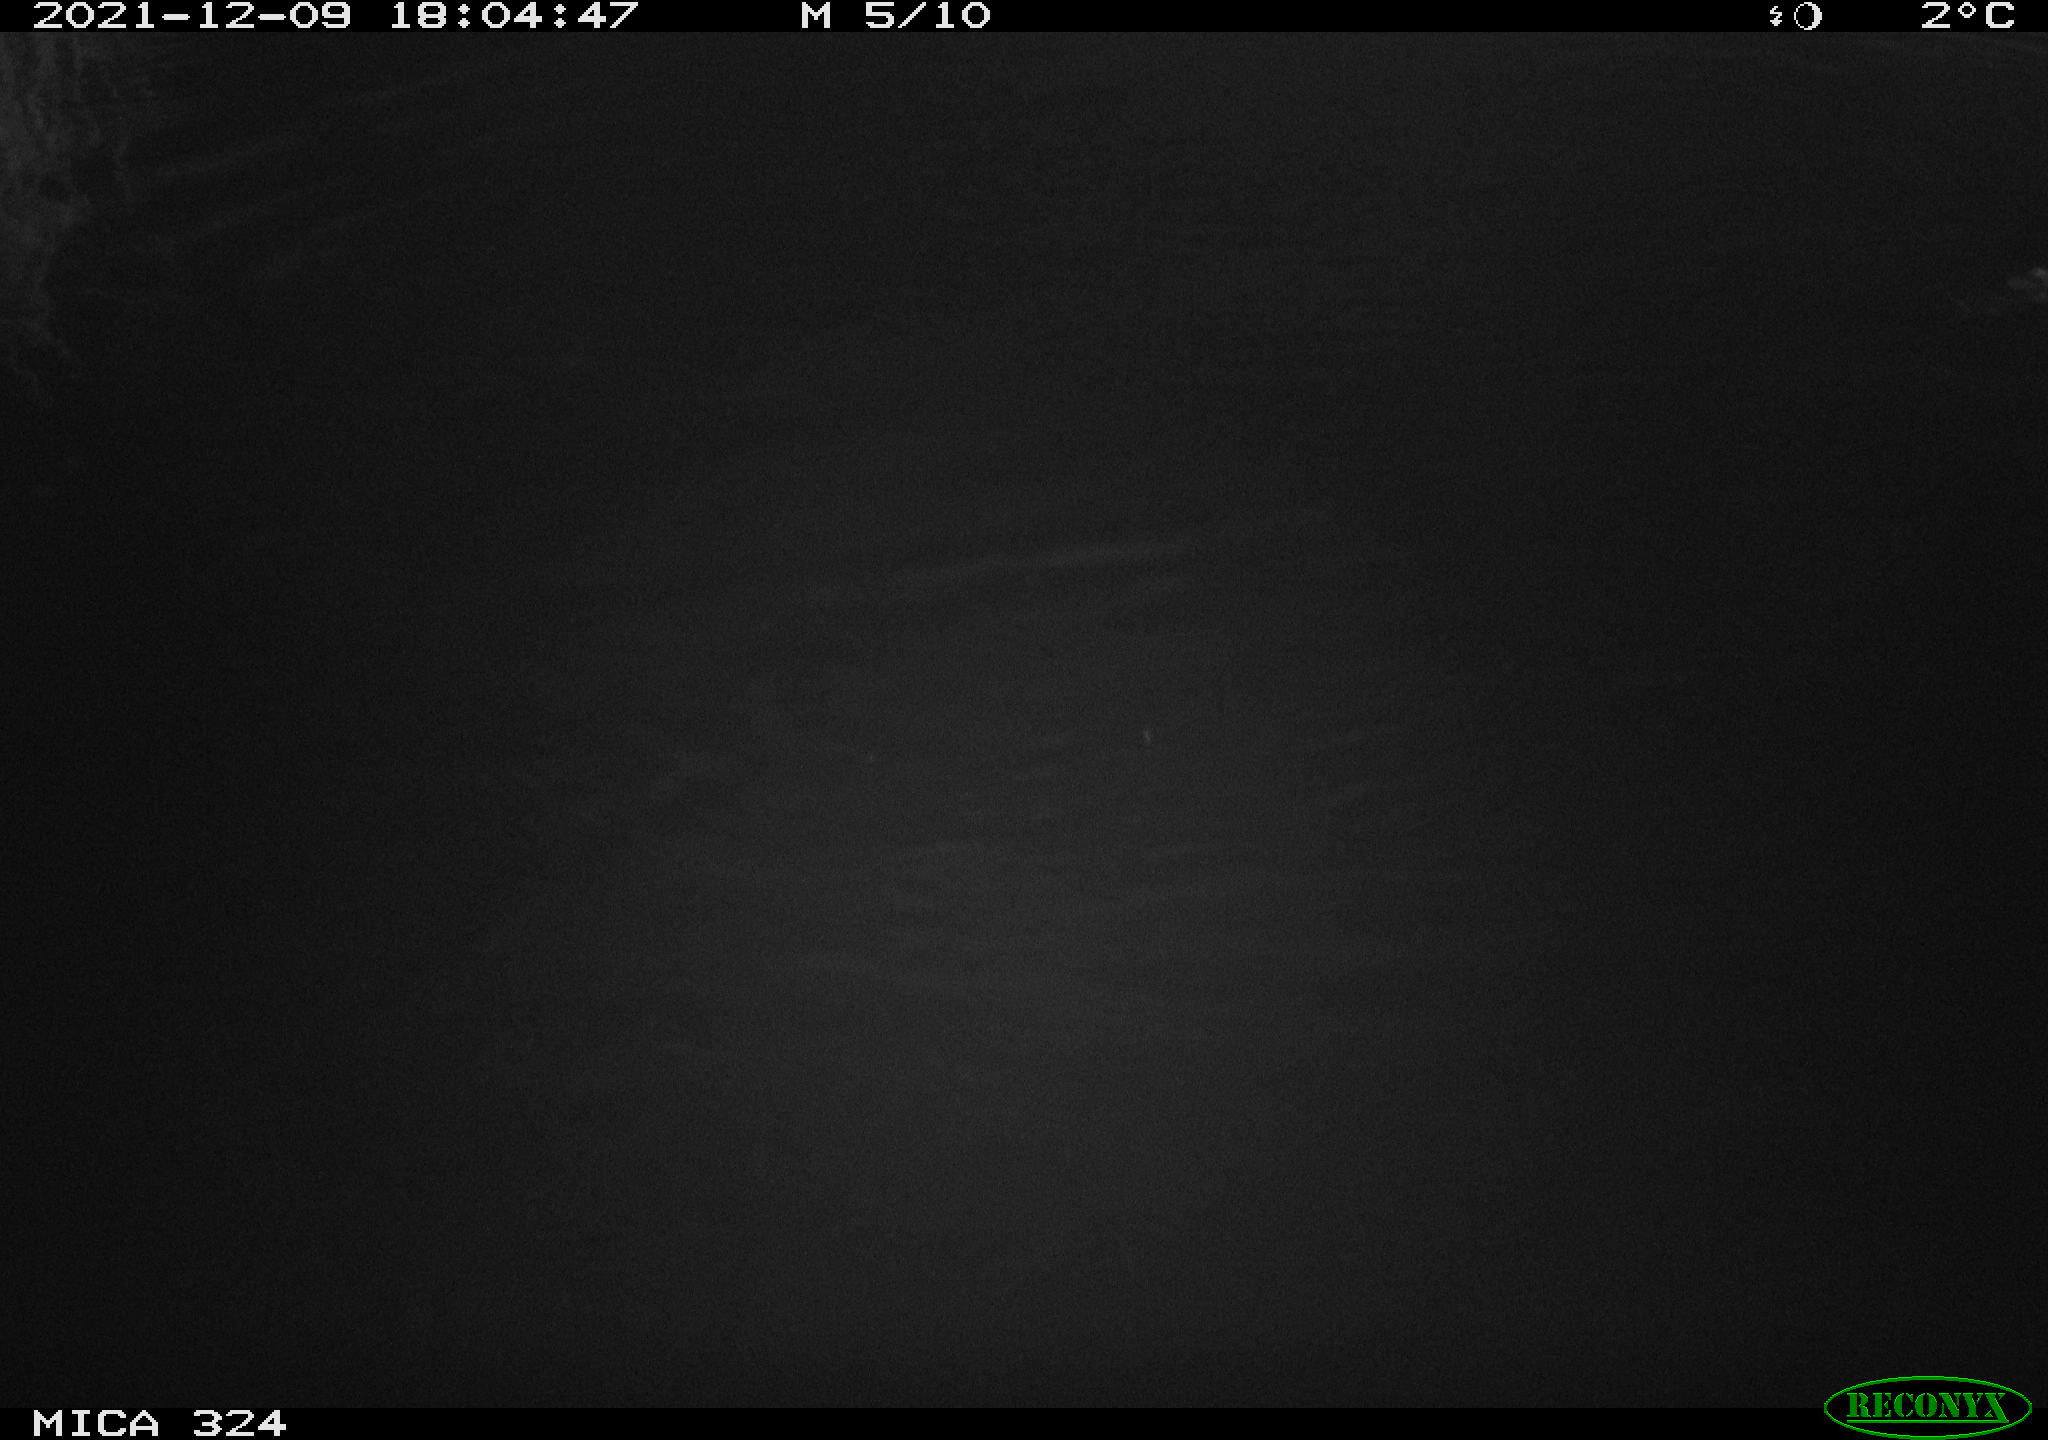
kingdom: Animalia
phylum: Chordata
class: Mammalia
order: Rodentia
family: Cricetidae
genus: Ondatra
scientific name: Ondatra zibethicus
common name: Muskrat
